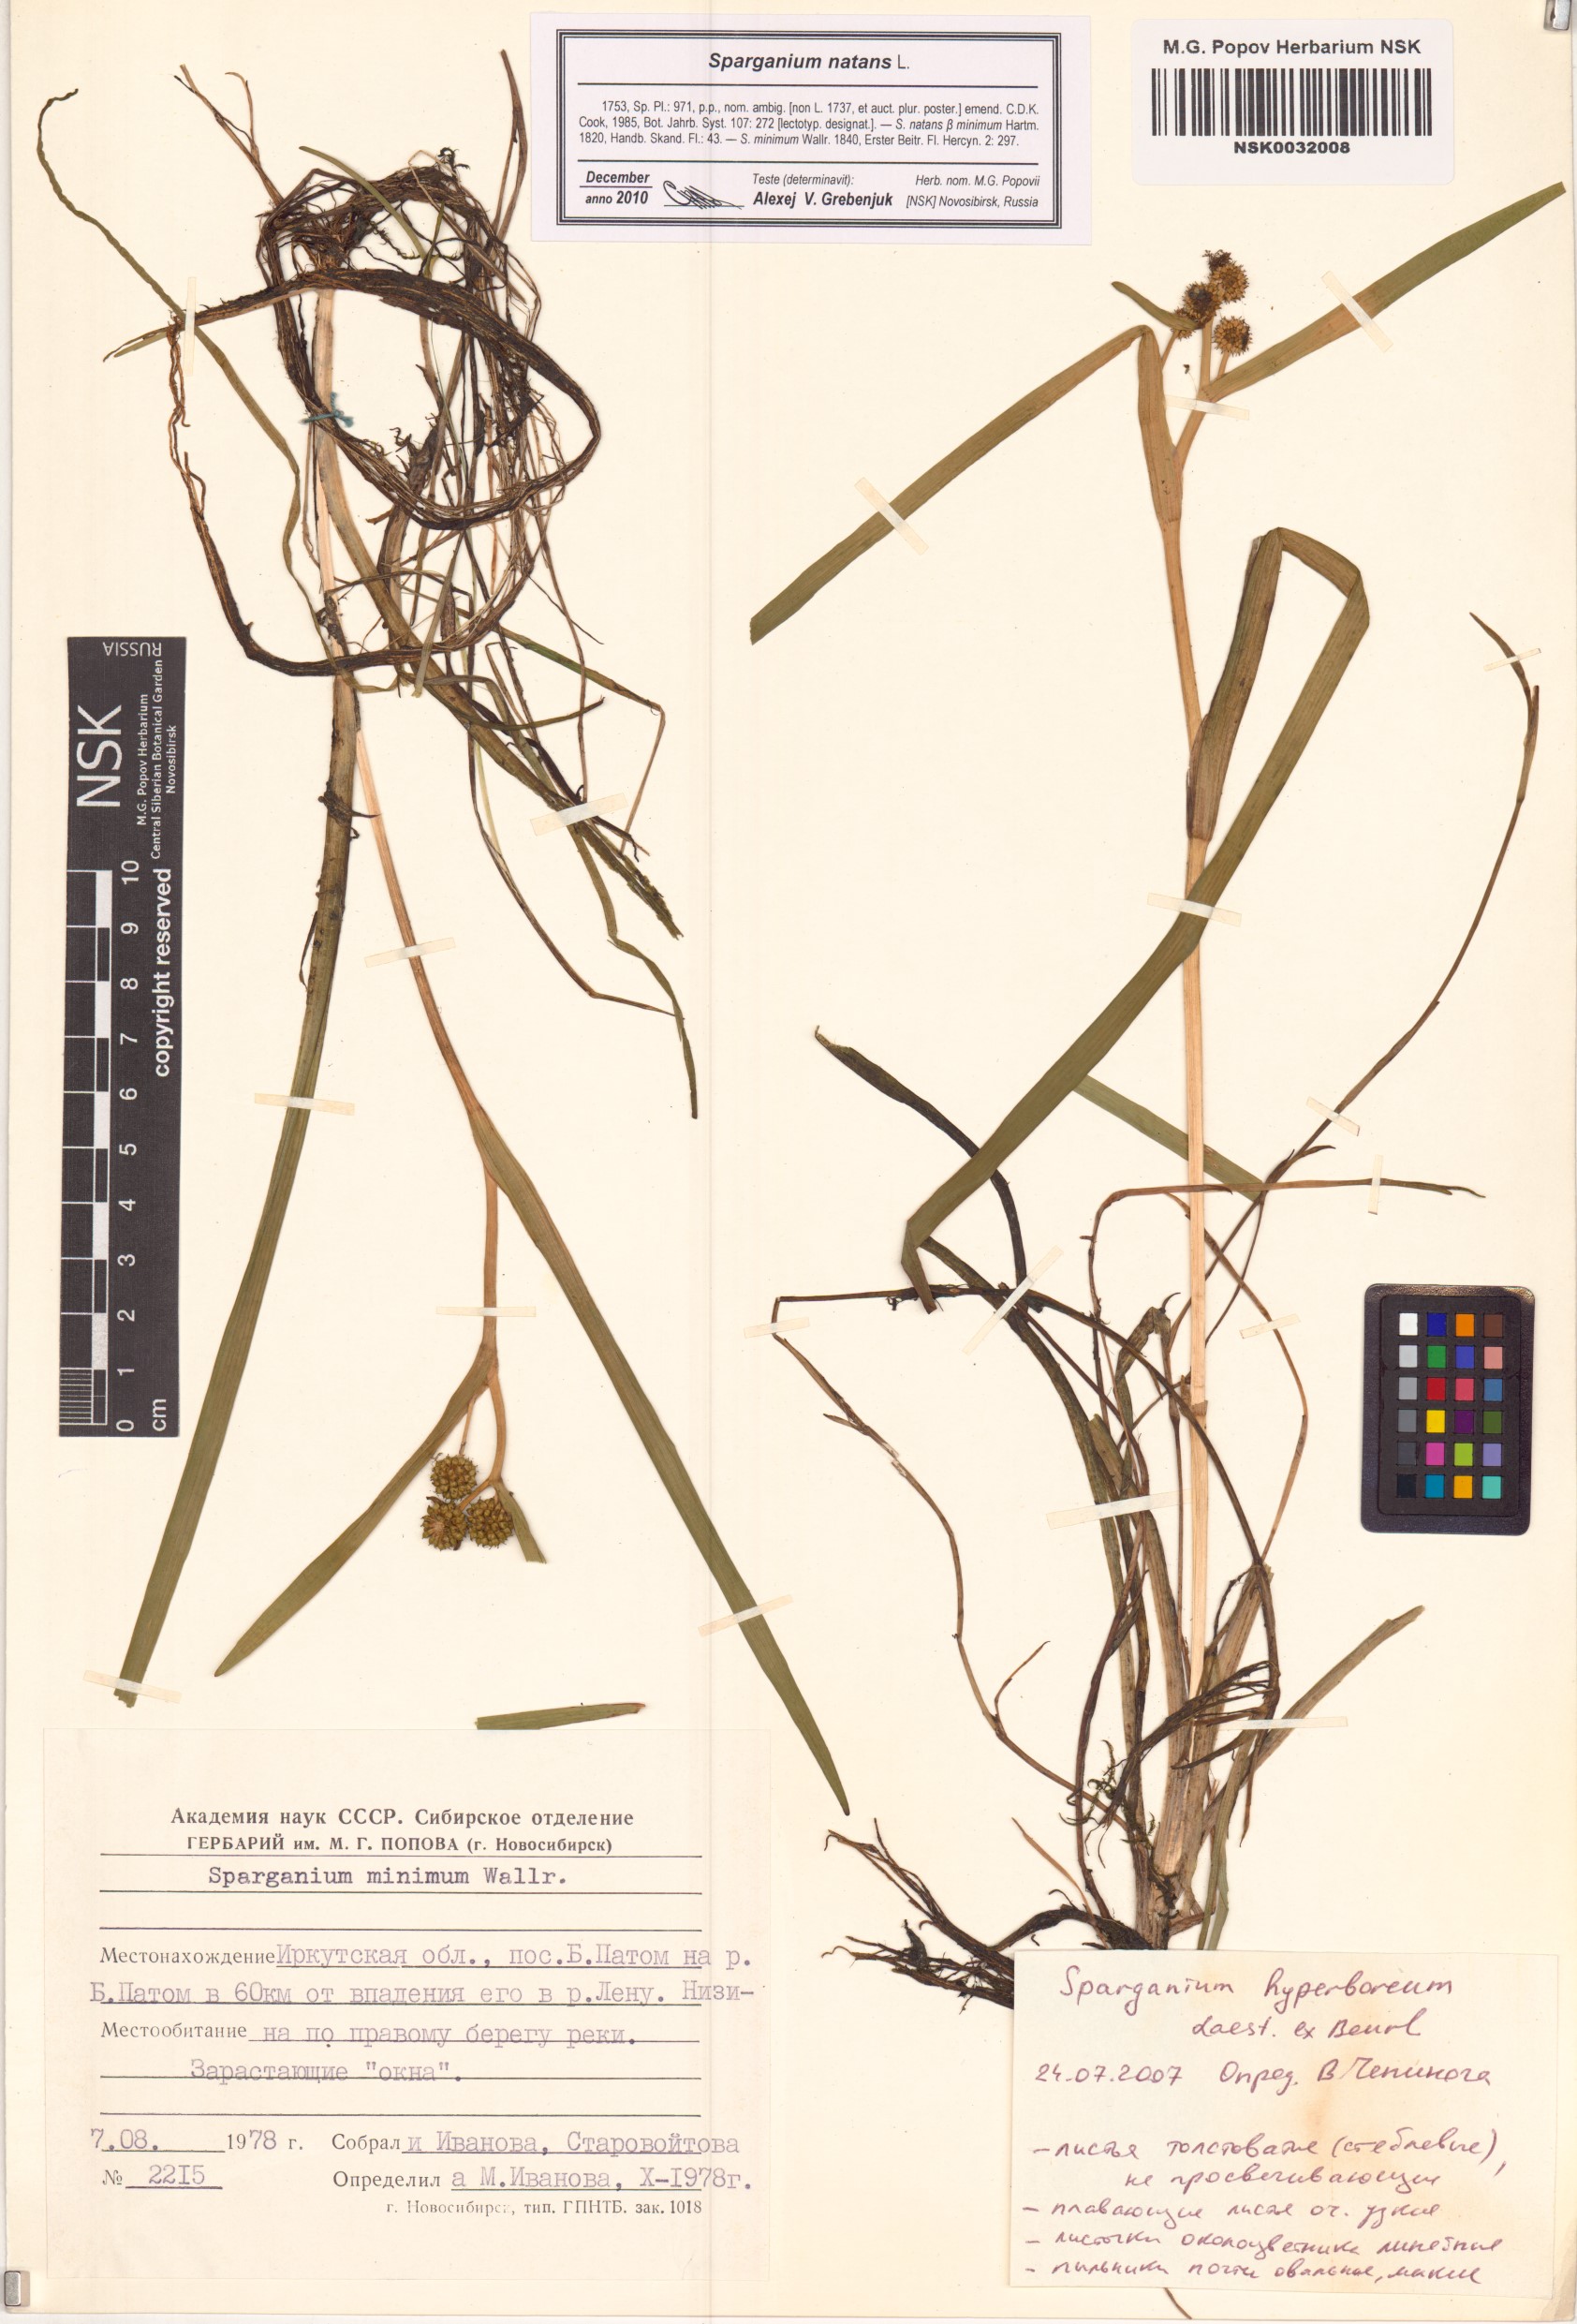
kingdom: Plantae
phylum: Tracheophyta
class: Liliopsida
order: Poales
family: Typhaceae
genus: Sparganium
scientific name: Sparganium natans
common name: Least bur-reed
